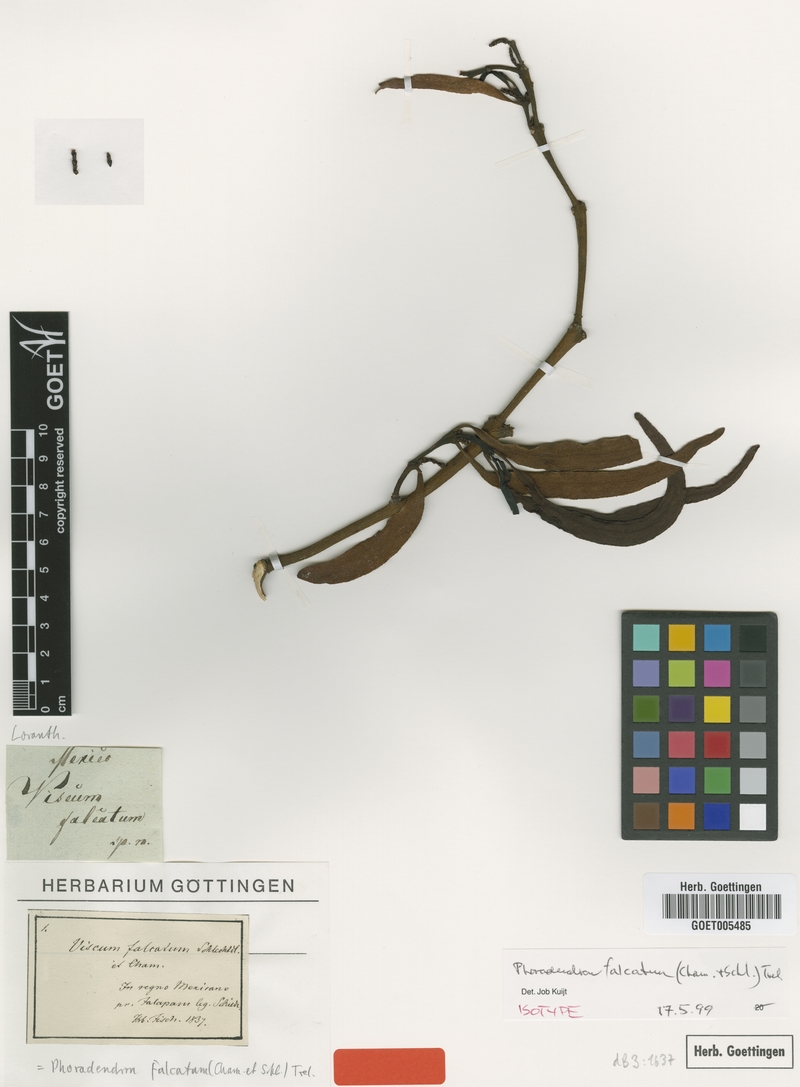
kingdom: Plantae
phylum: Tracheophyta
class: Magnoliopsida
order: Santalales
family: Viscaceae
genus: Phoradendron
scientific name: Phoradendron falcifer
